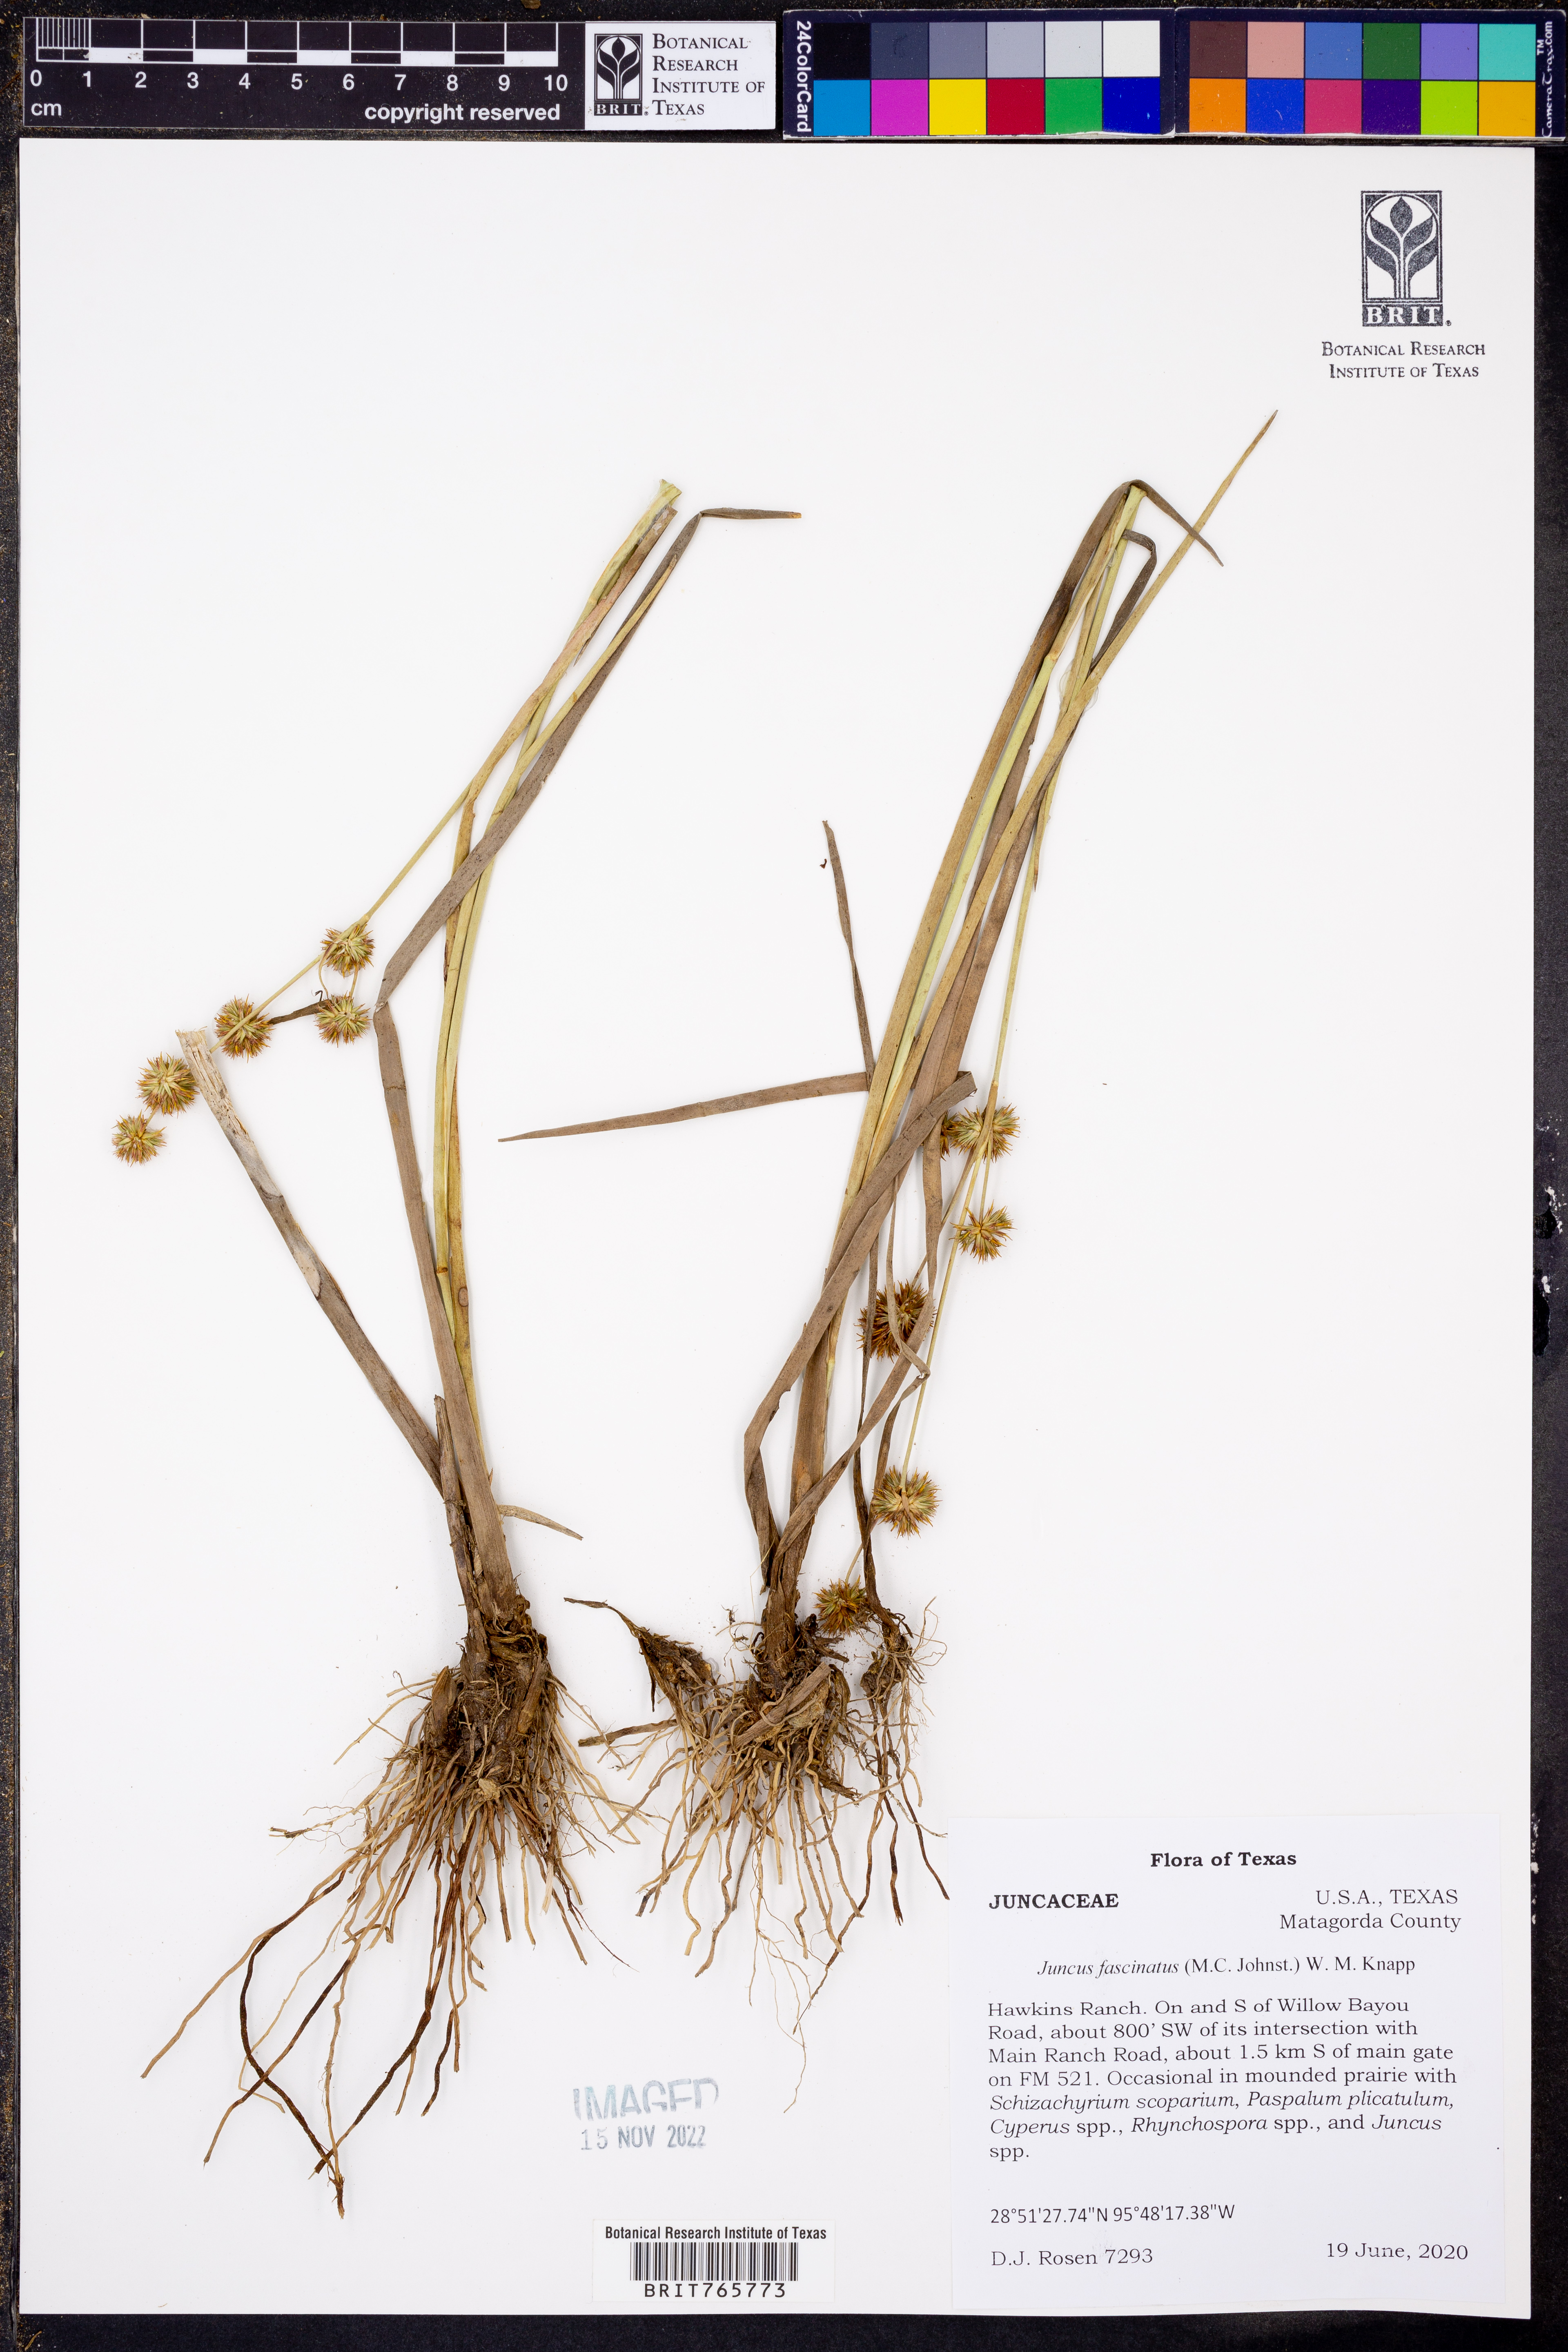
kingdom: Plantae
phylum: Tracheophyta
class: Liliopsida
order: Poales
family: Juncaceae
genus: Juncus
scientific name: Juncus fascinatus
